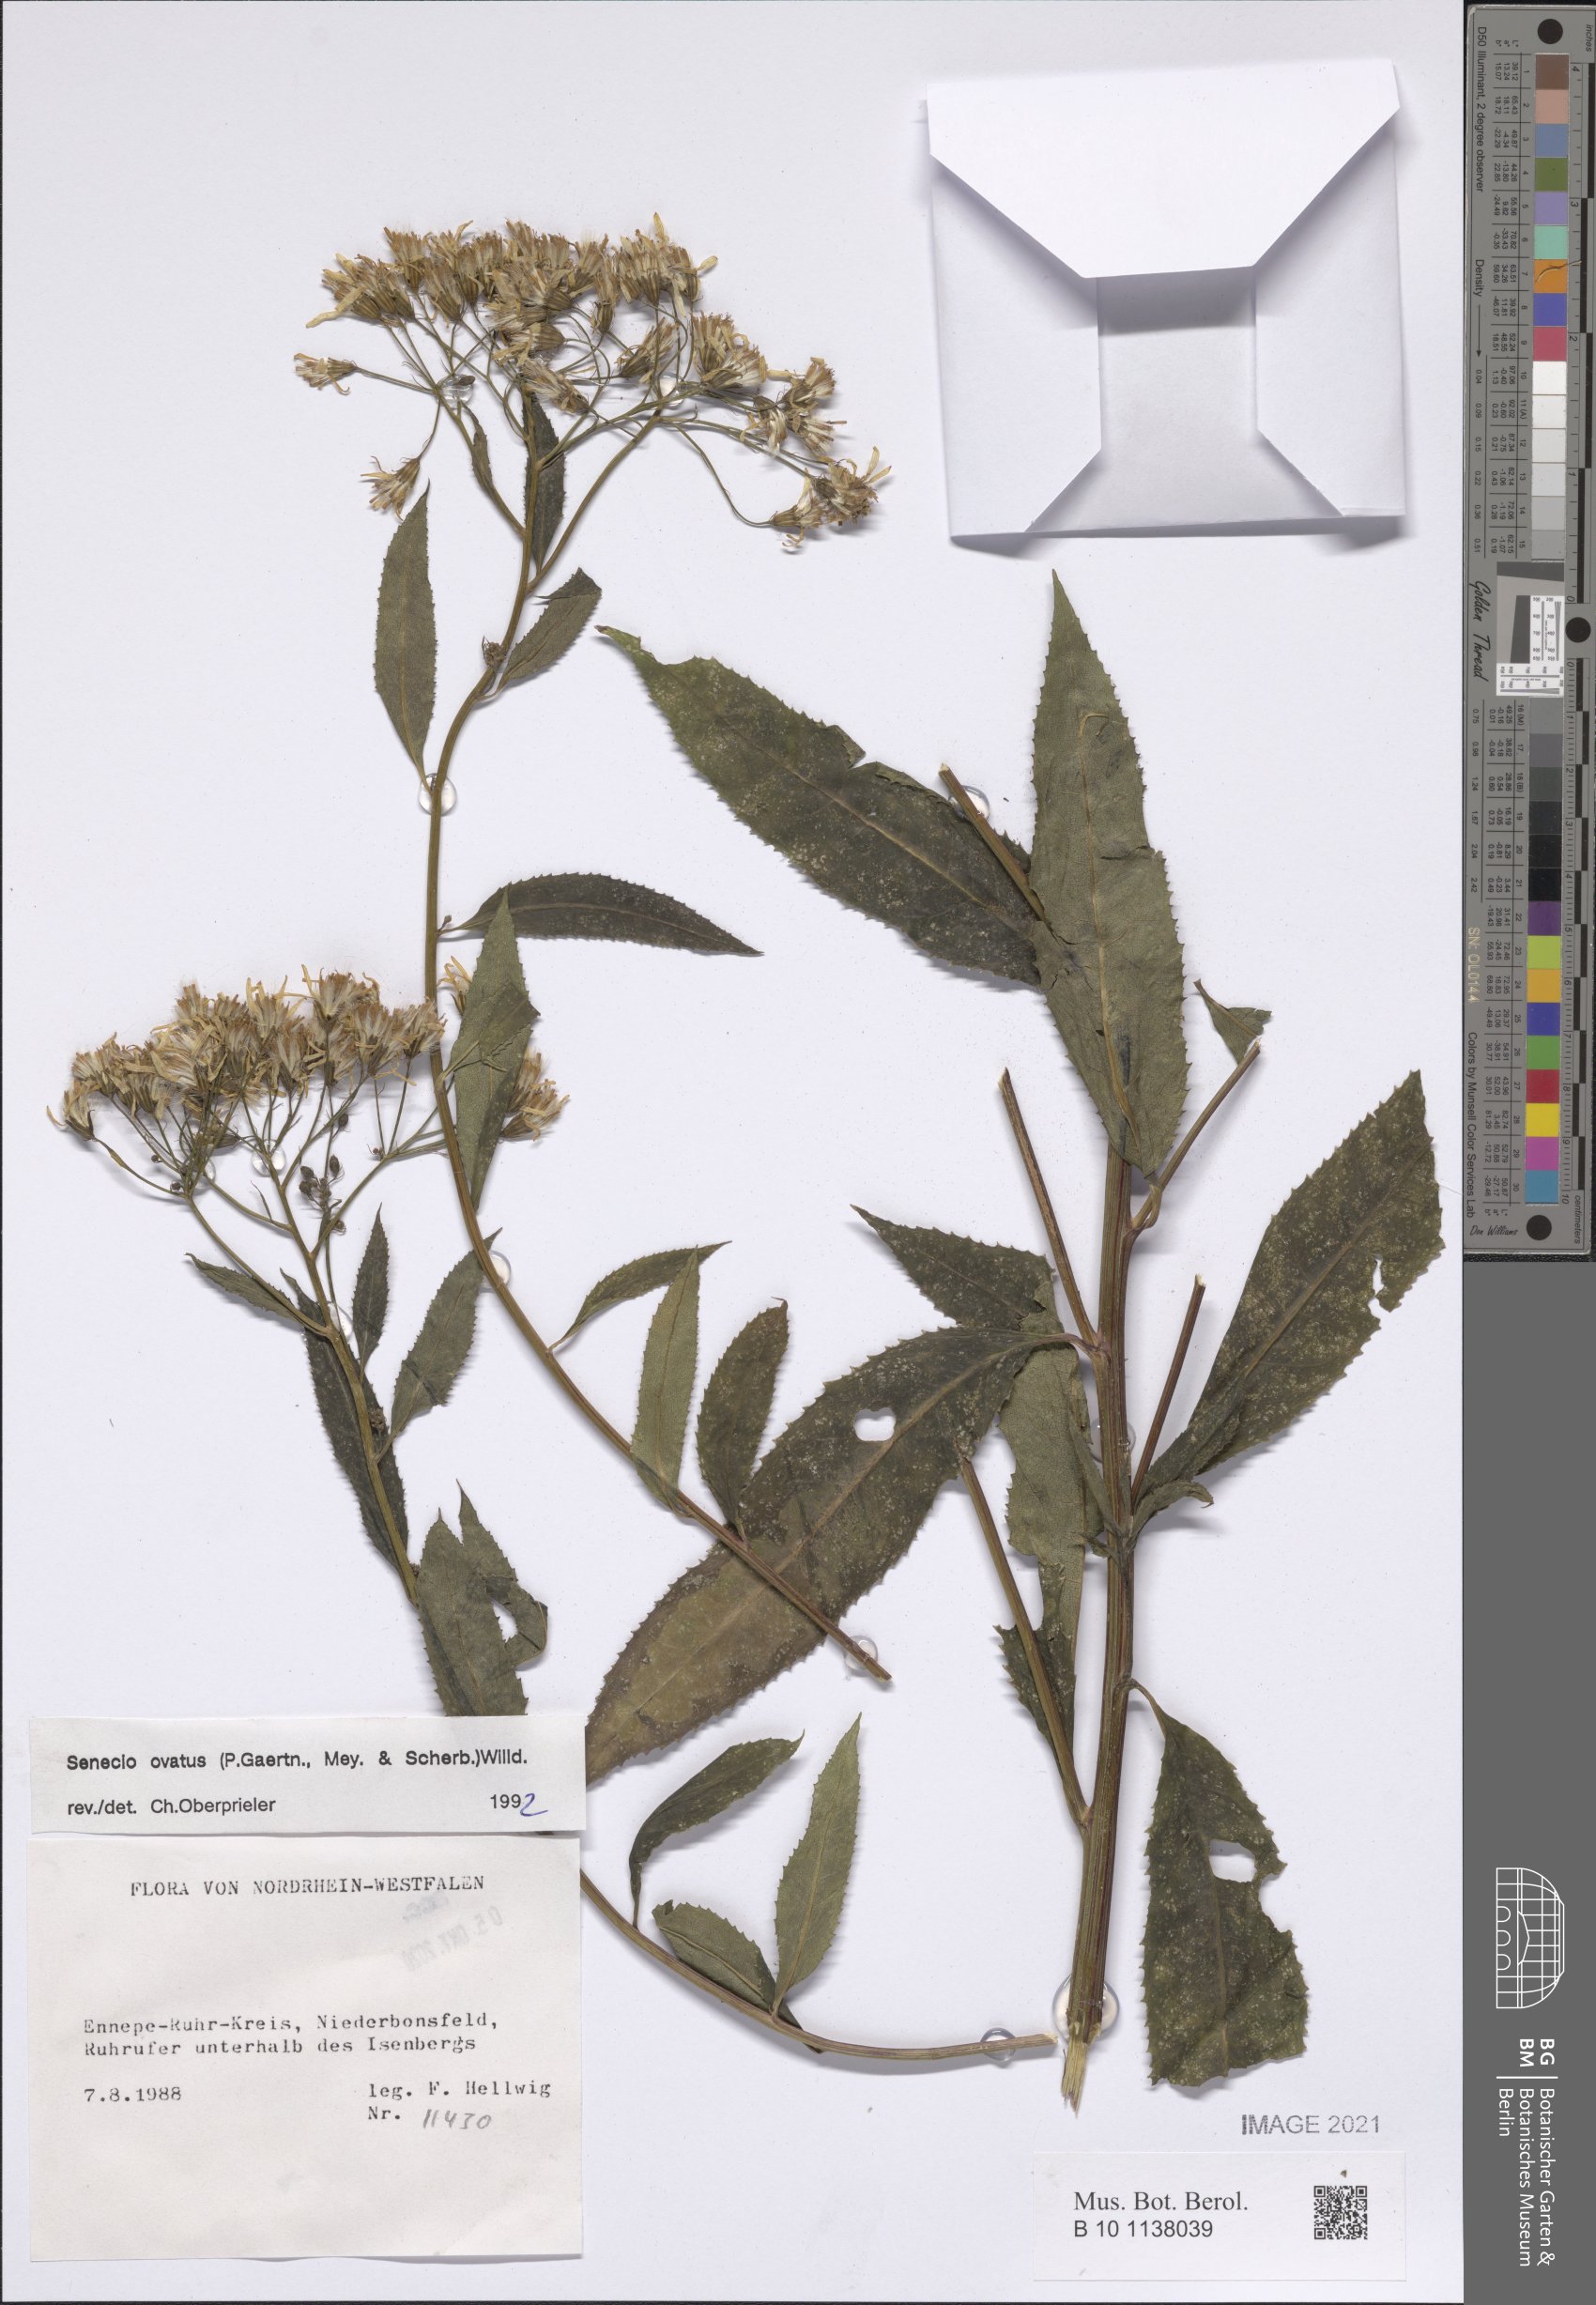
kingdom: Plantae
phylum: Tracheophyta
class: Magnoliopsida
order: Asterales
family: Asteraceae
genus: Senecio
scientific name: Senecio ovatus
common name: Wood ragwort
